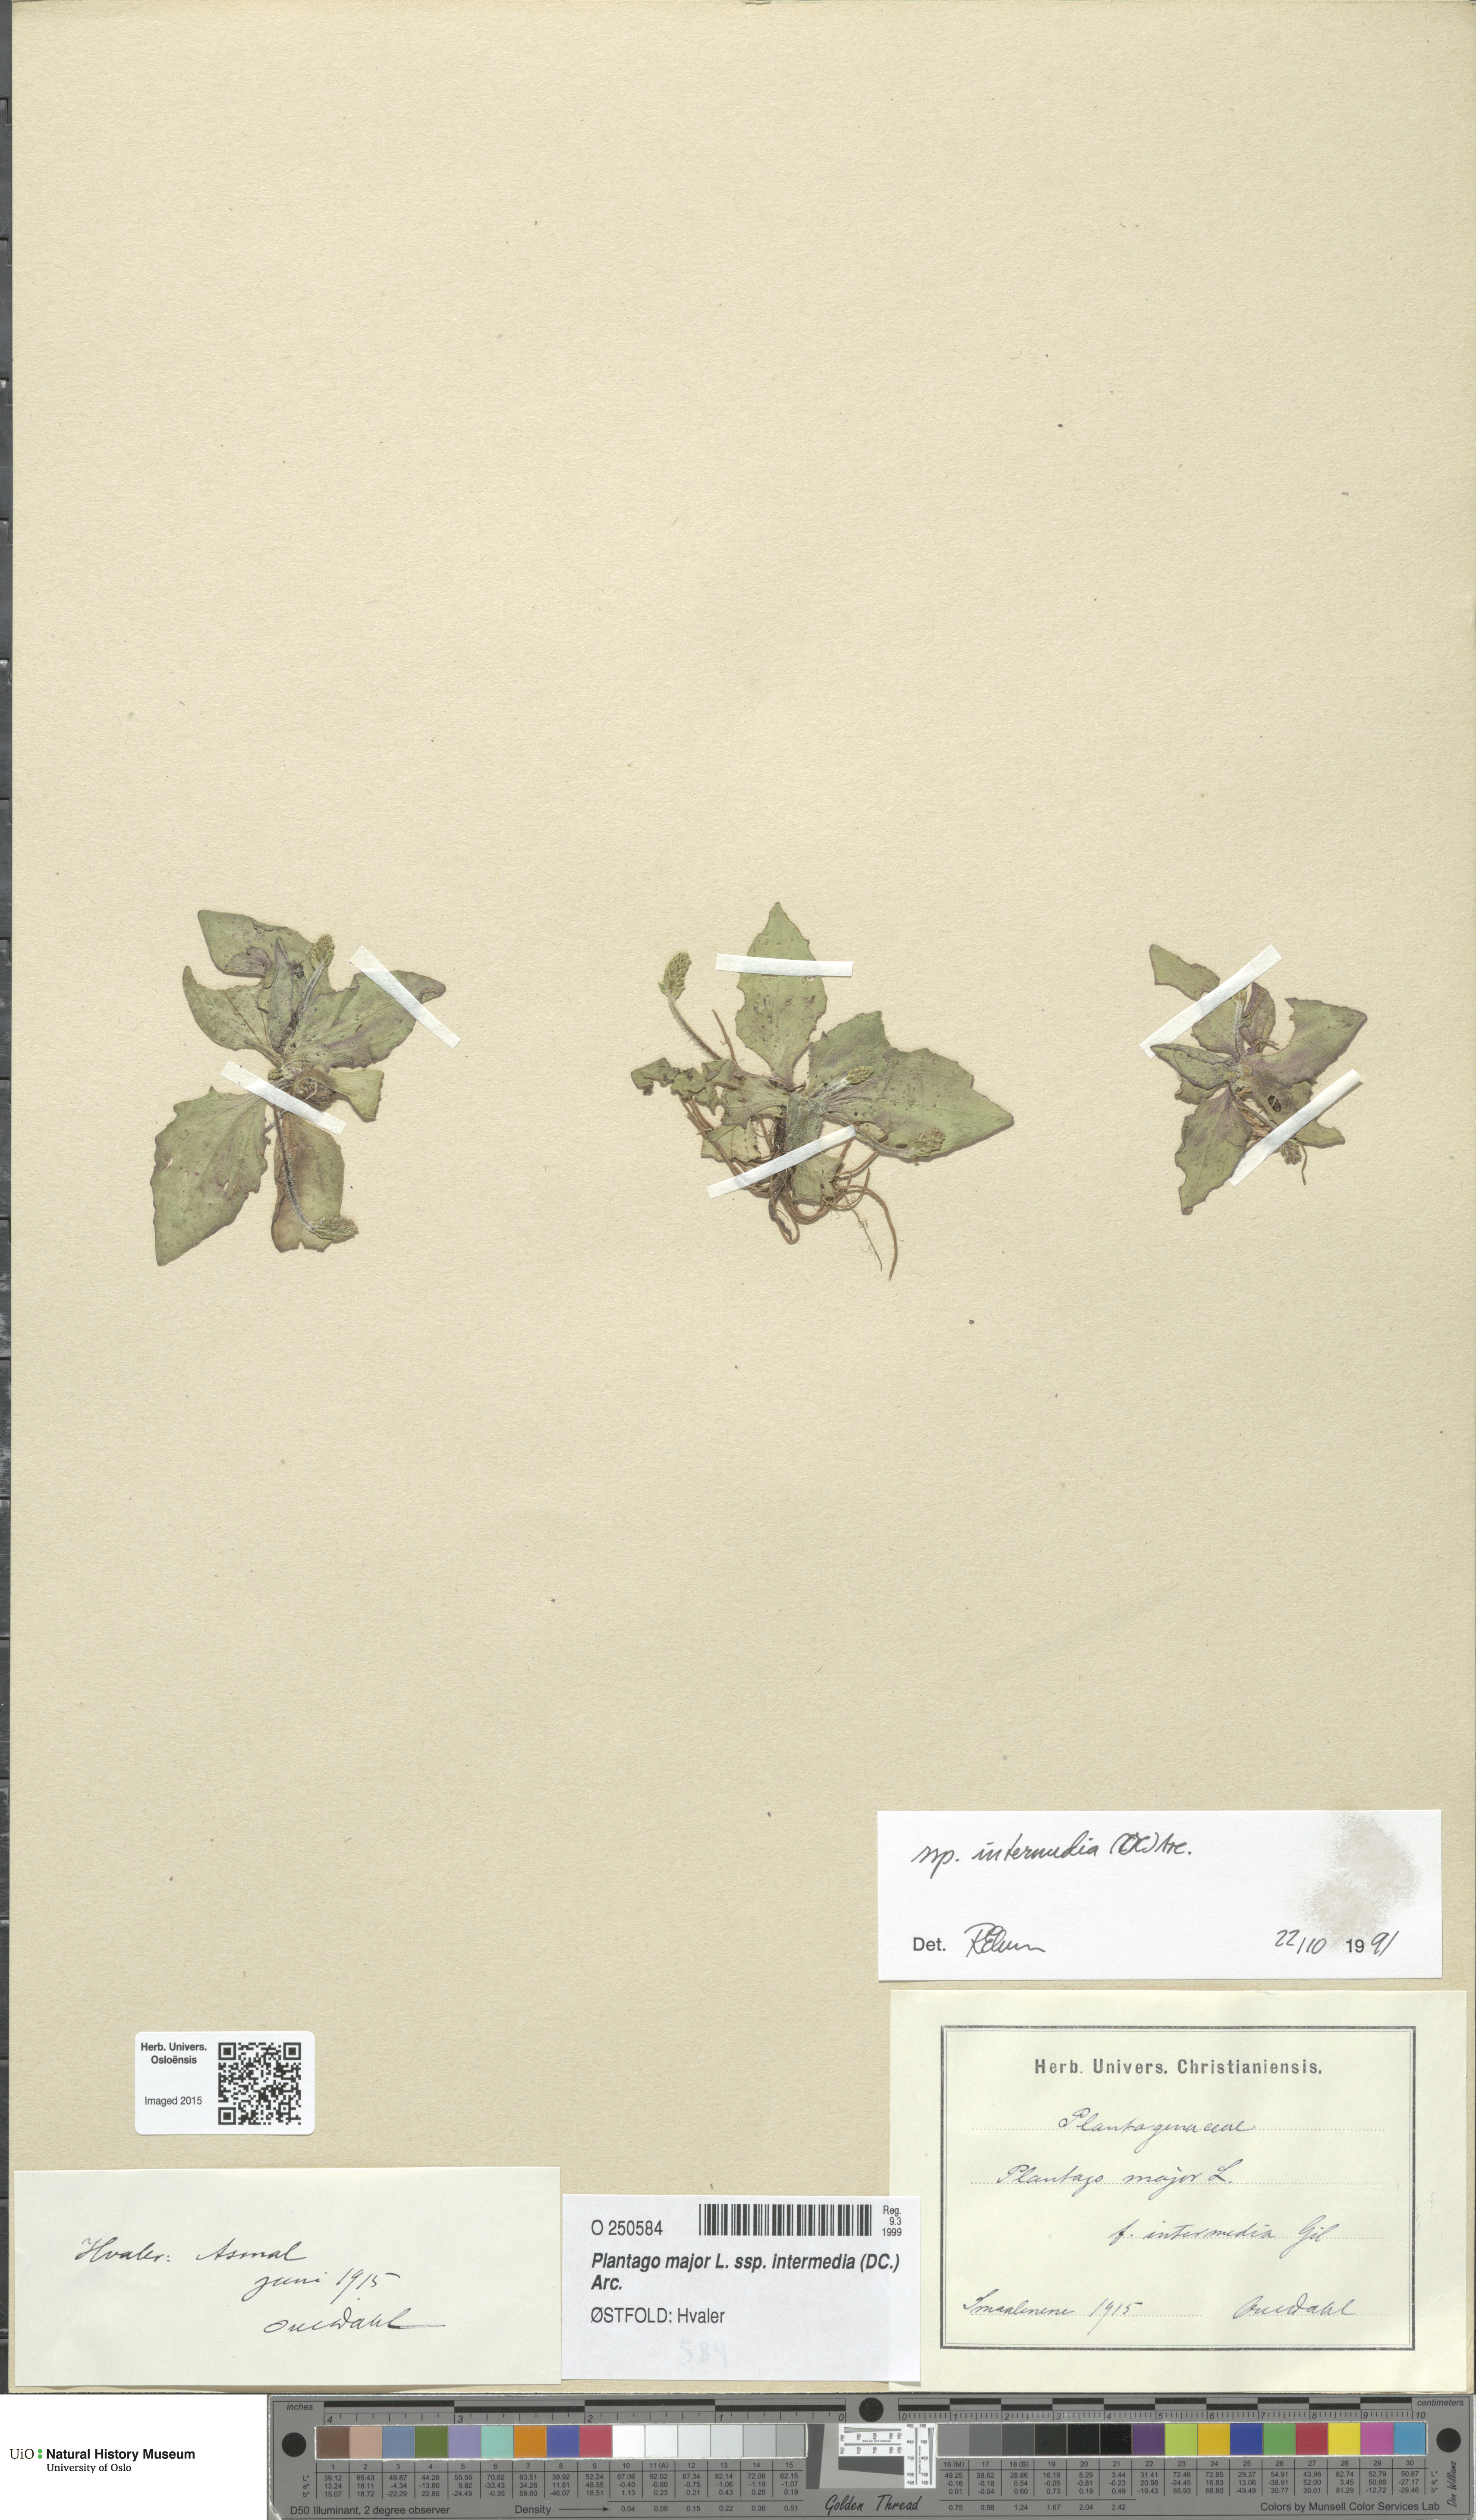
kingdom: Plantae
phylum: Tracheophyta
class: Magnoliopsida
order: Lamiales
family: Plantaginaceae
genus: Plantago
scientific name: Plantago uliginosa
